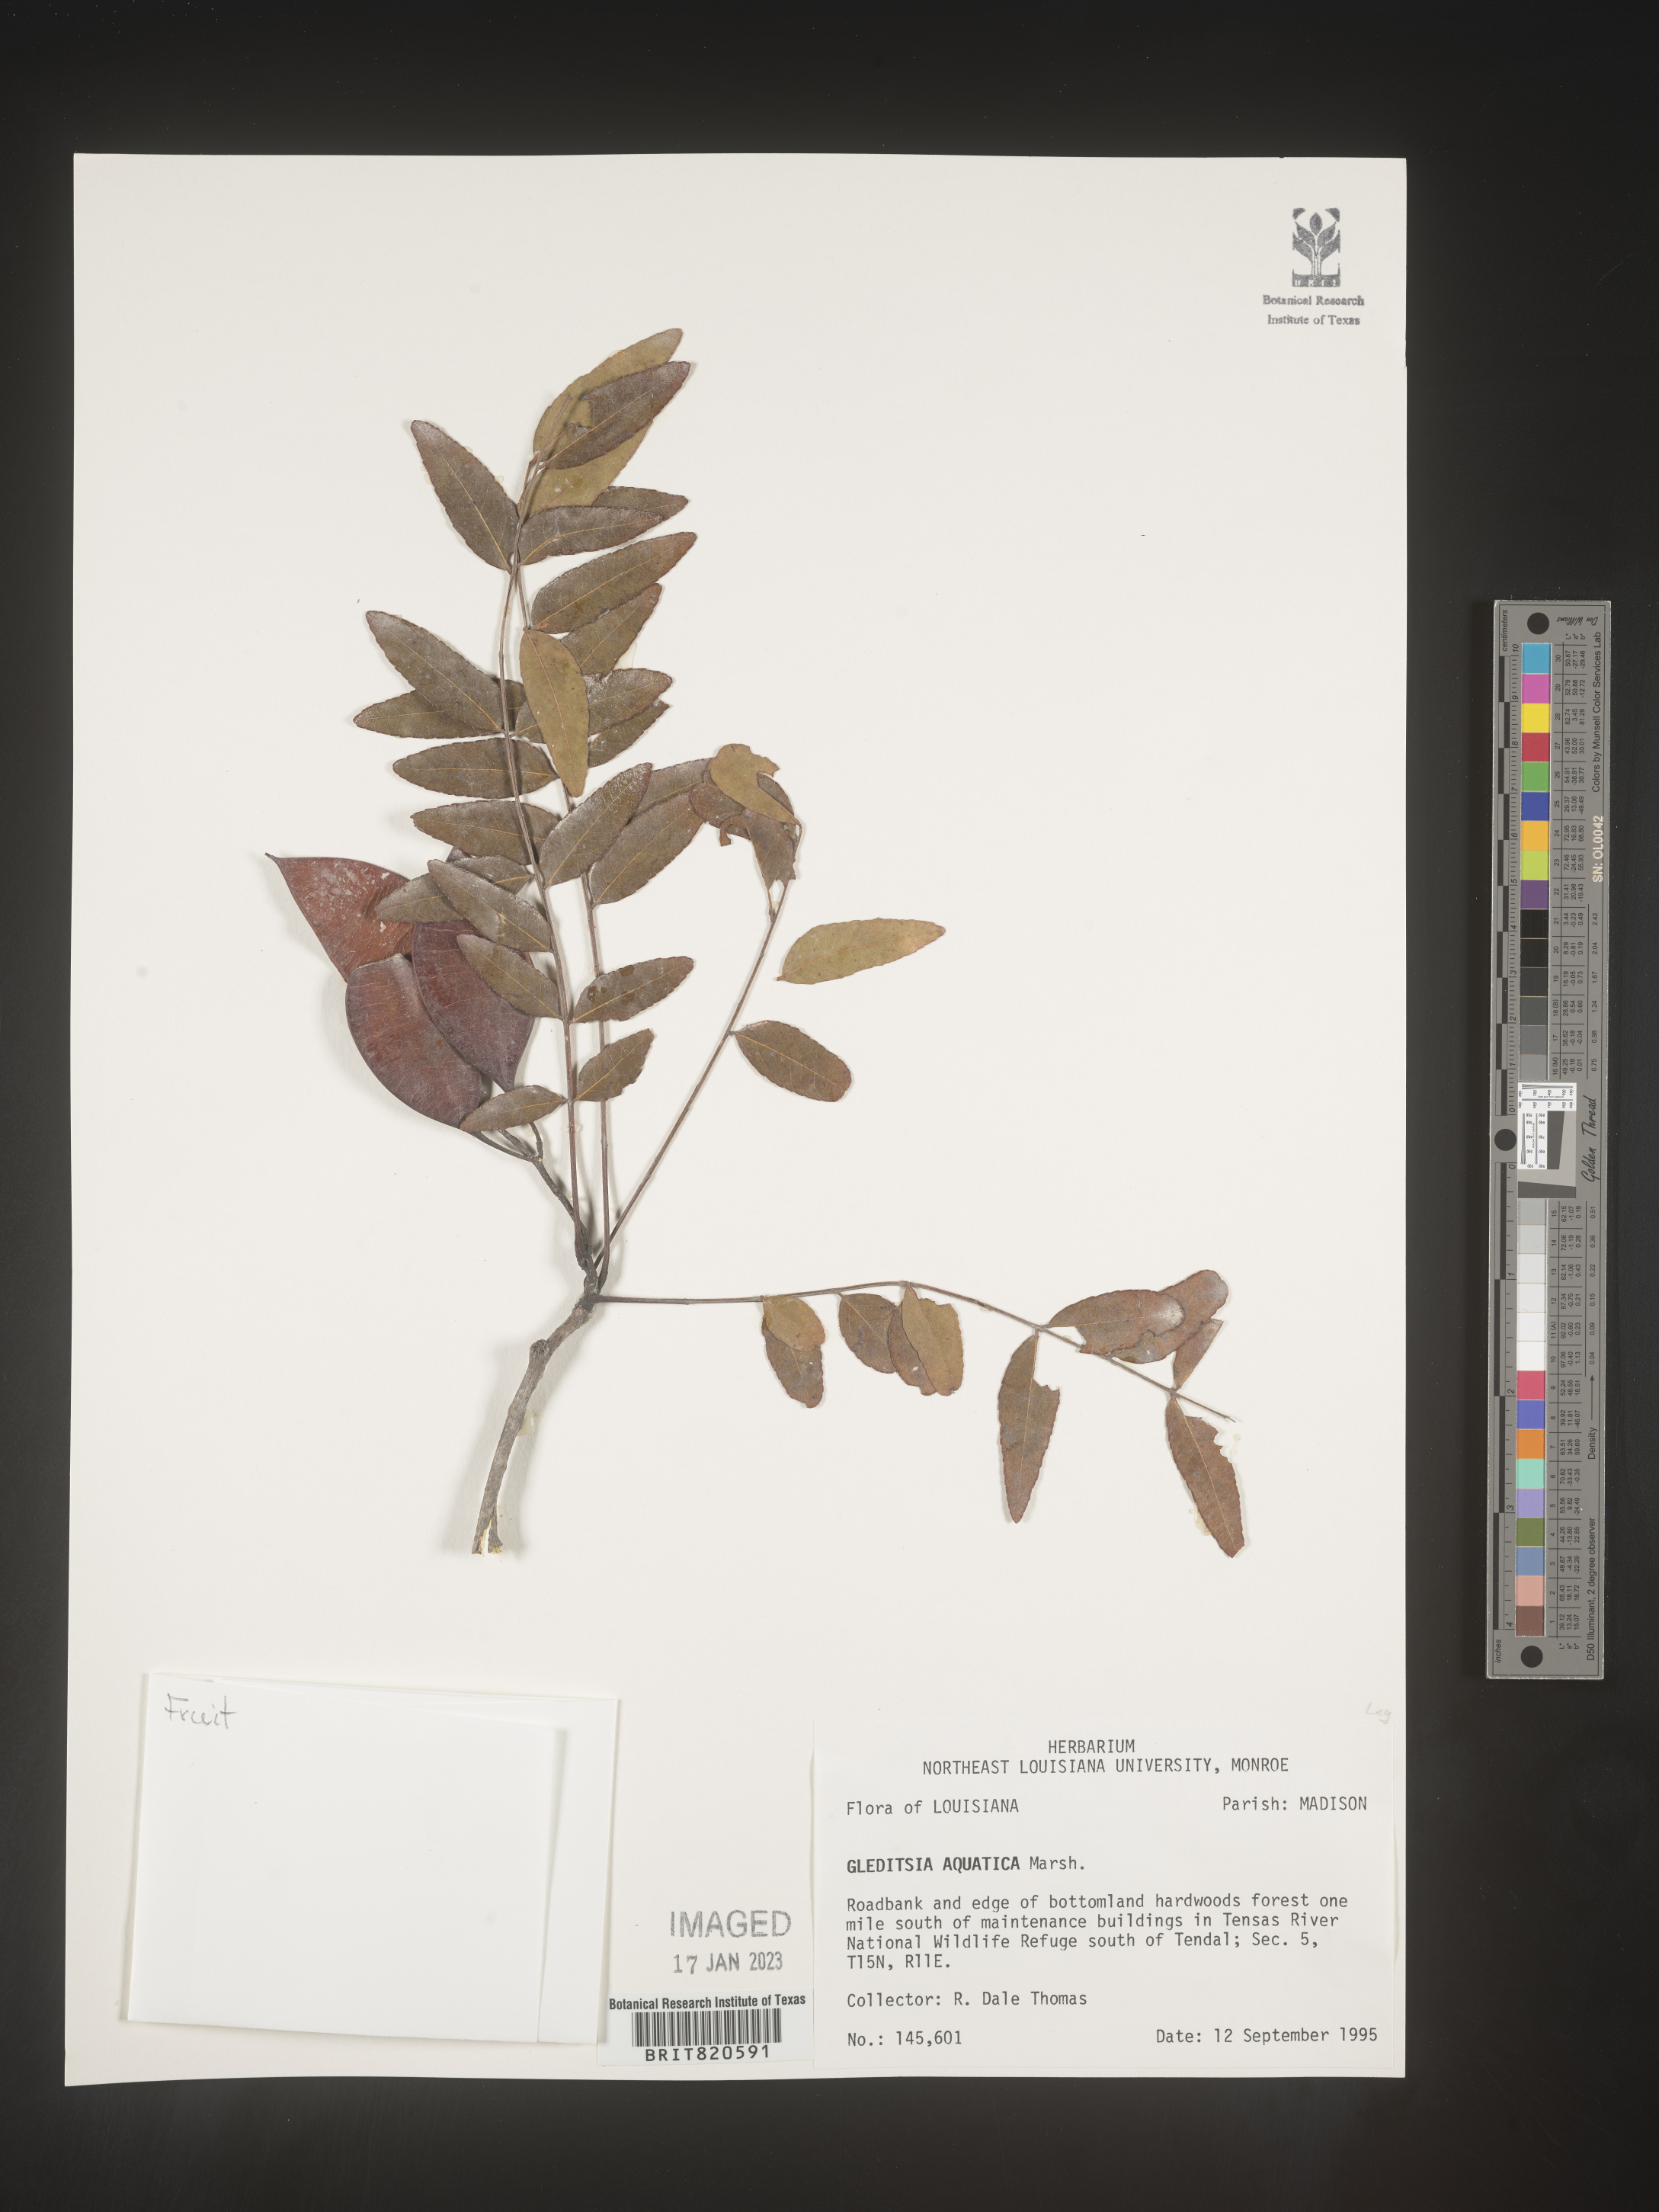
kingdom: Plantae
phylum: Tracheophyta
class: Magnoliopsida
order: Fabales
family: Fabaceae
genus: Gleditsia
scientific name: Gleditsia aquatica
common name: Swamp-locust
